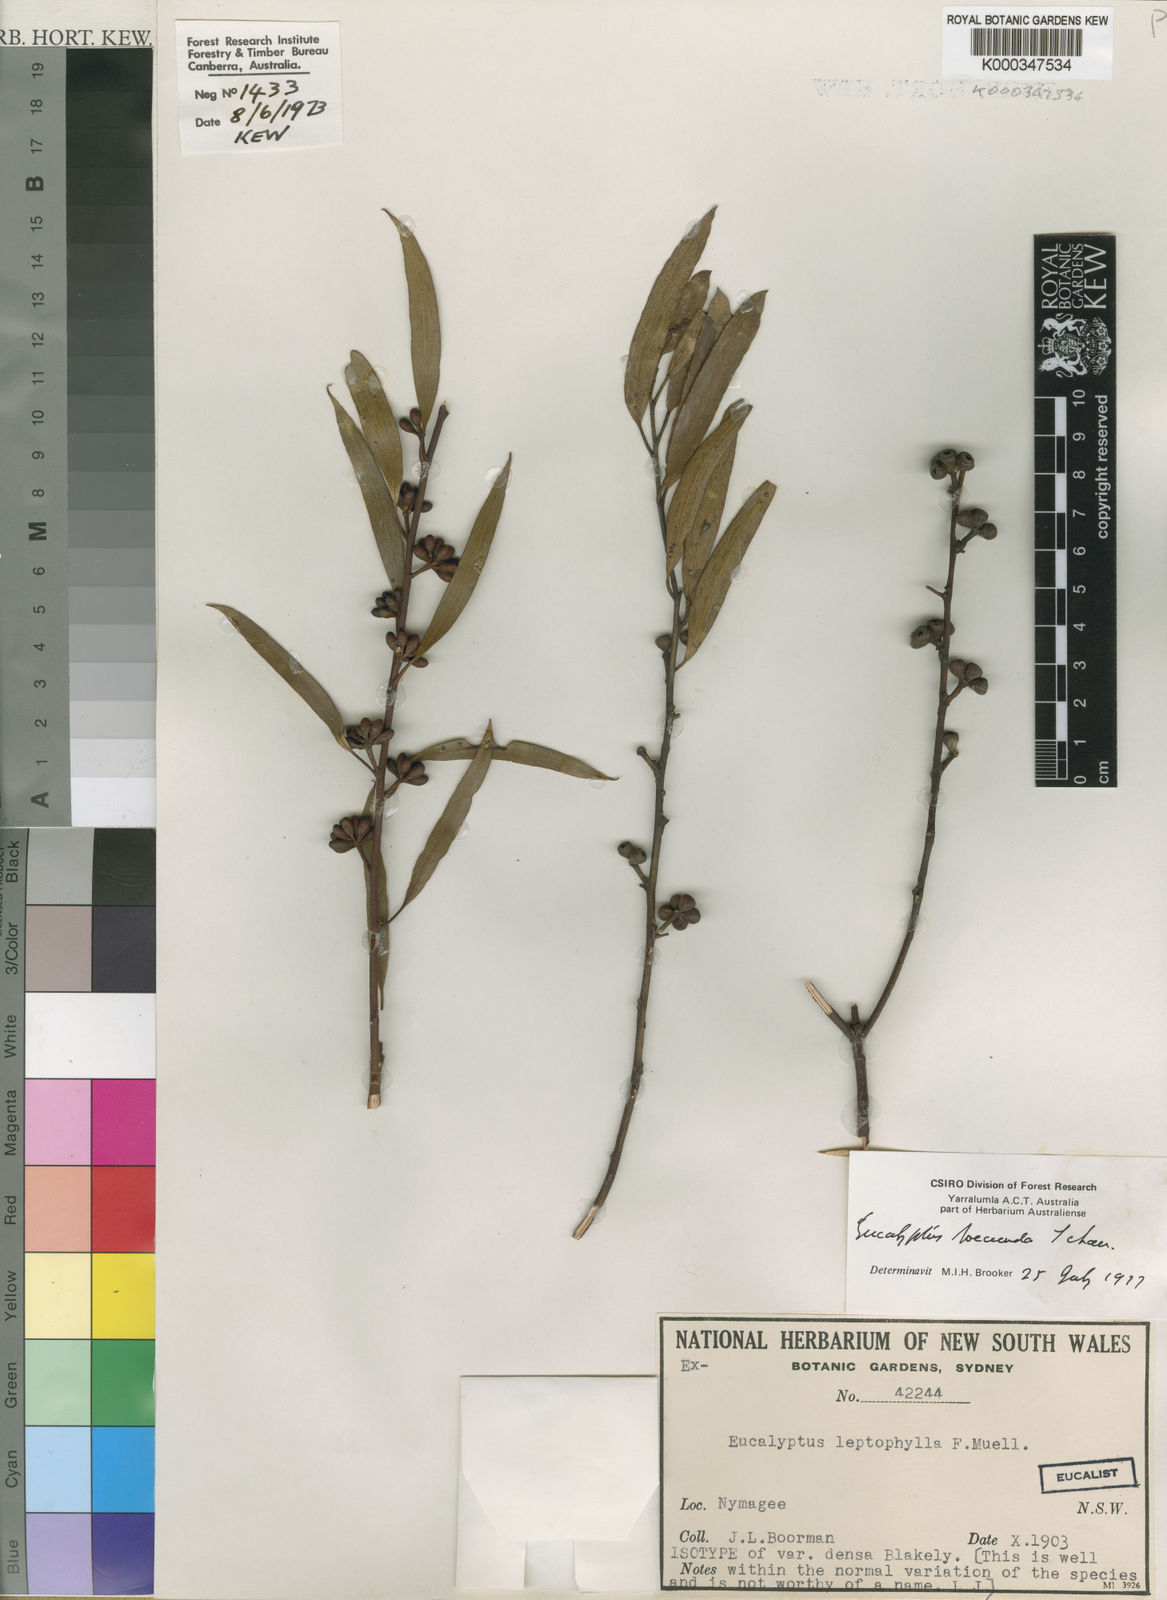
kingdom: Plantae
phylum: Tracheophyta
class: Magnoliopsida
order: Myrtales
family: Myrtaceae
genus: Eucalyptus
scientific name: Eucalyptus foecunda
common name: Freemantle mallee
